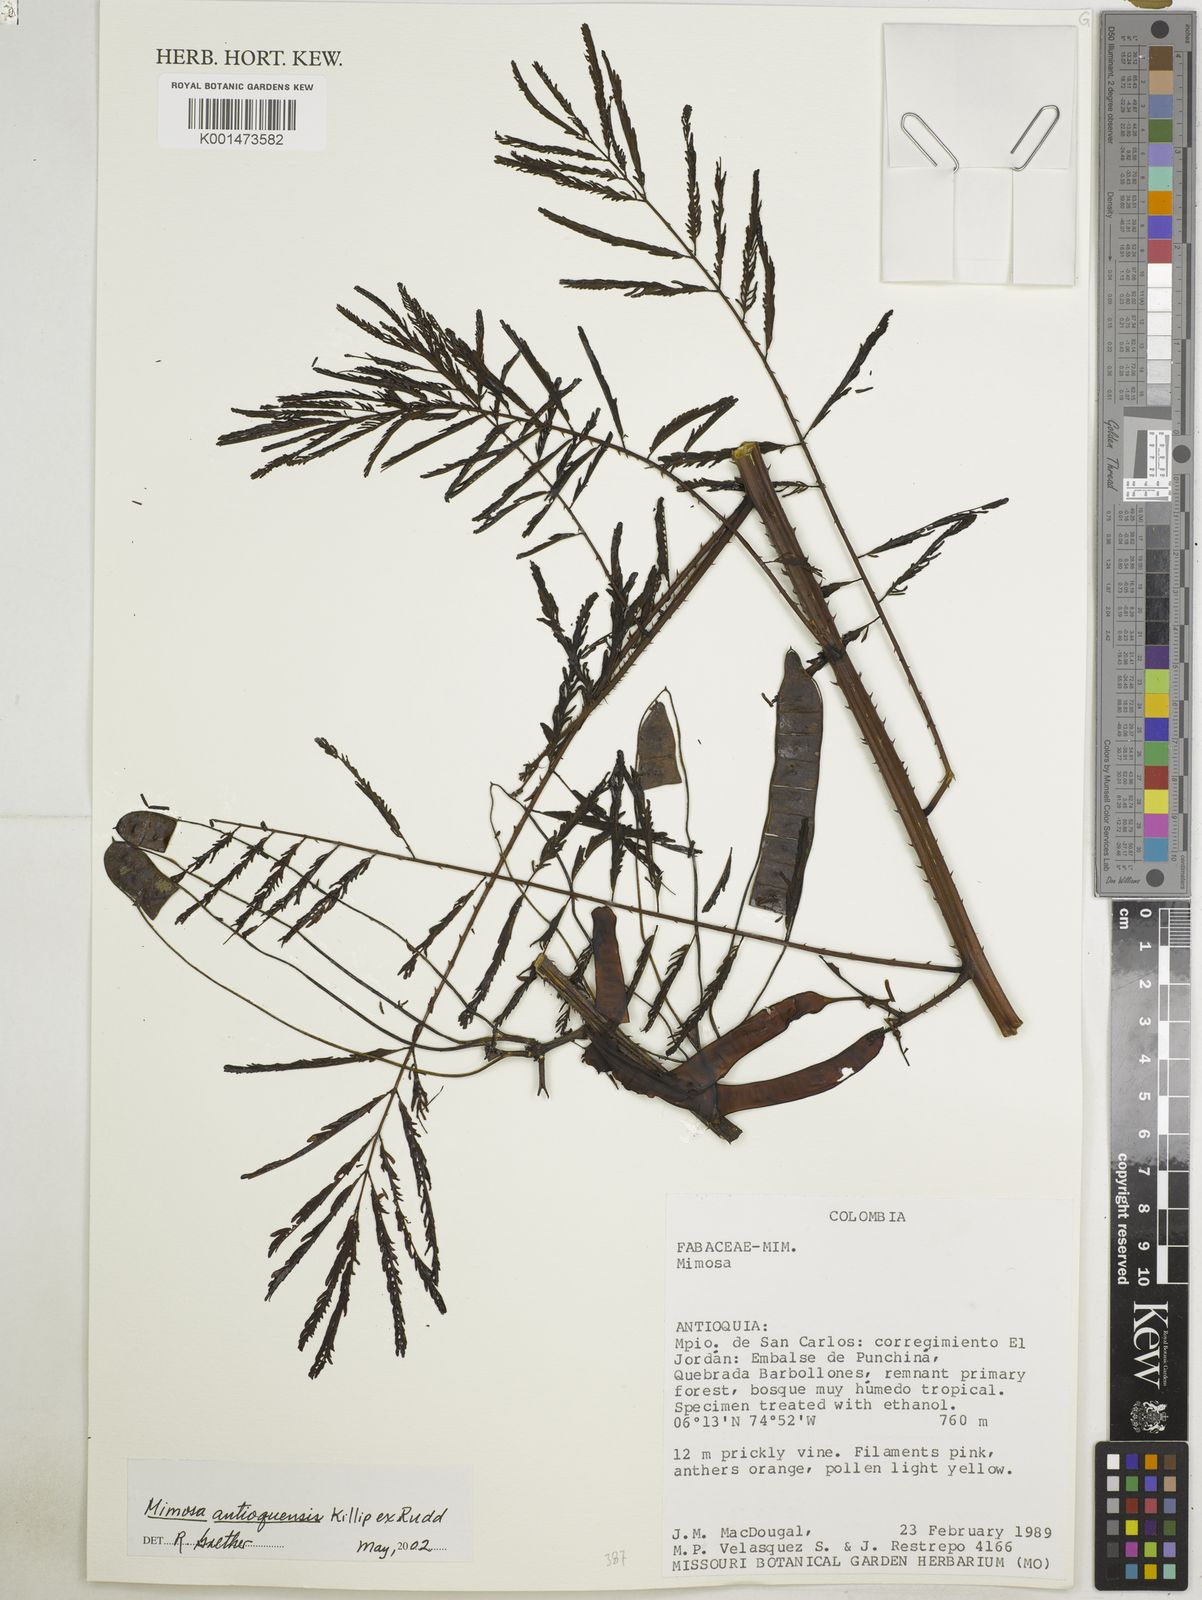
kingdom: Plantae
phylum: Tracheophyta
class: Magnoliopsida
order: Fabales
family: Fabaceae
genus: Mimosa
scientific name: Mimosa antioquensis
